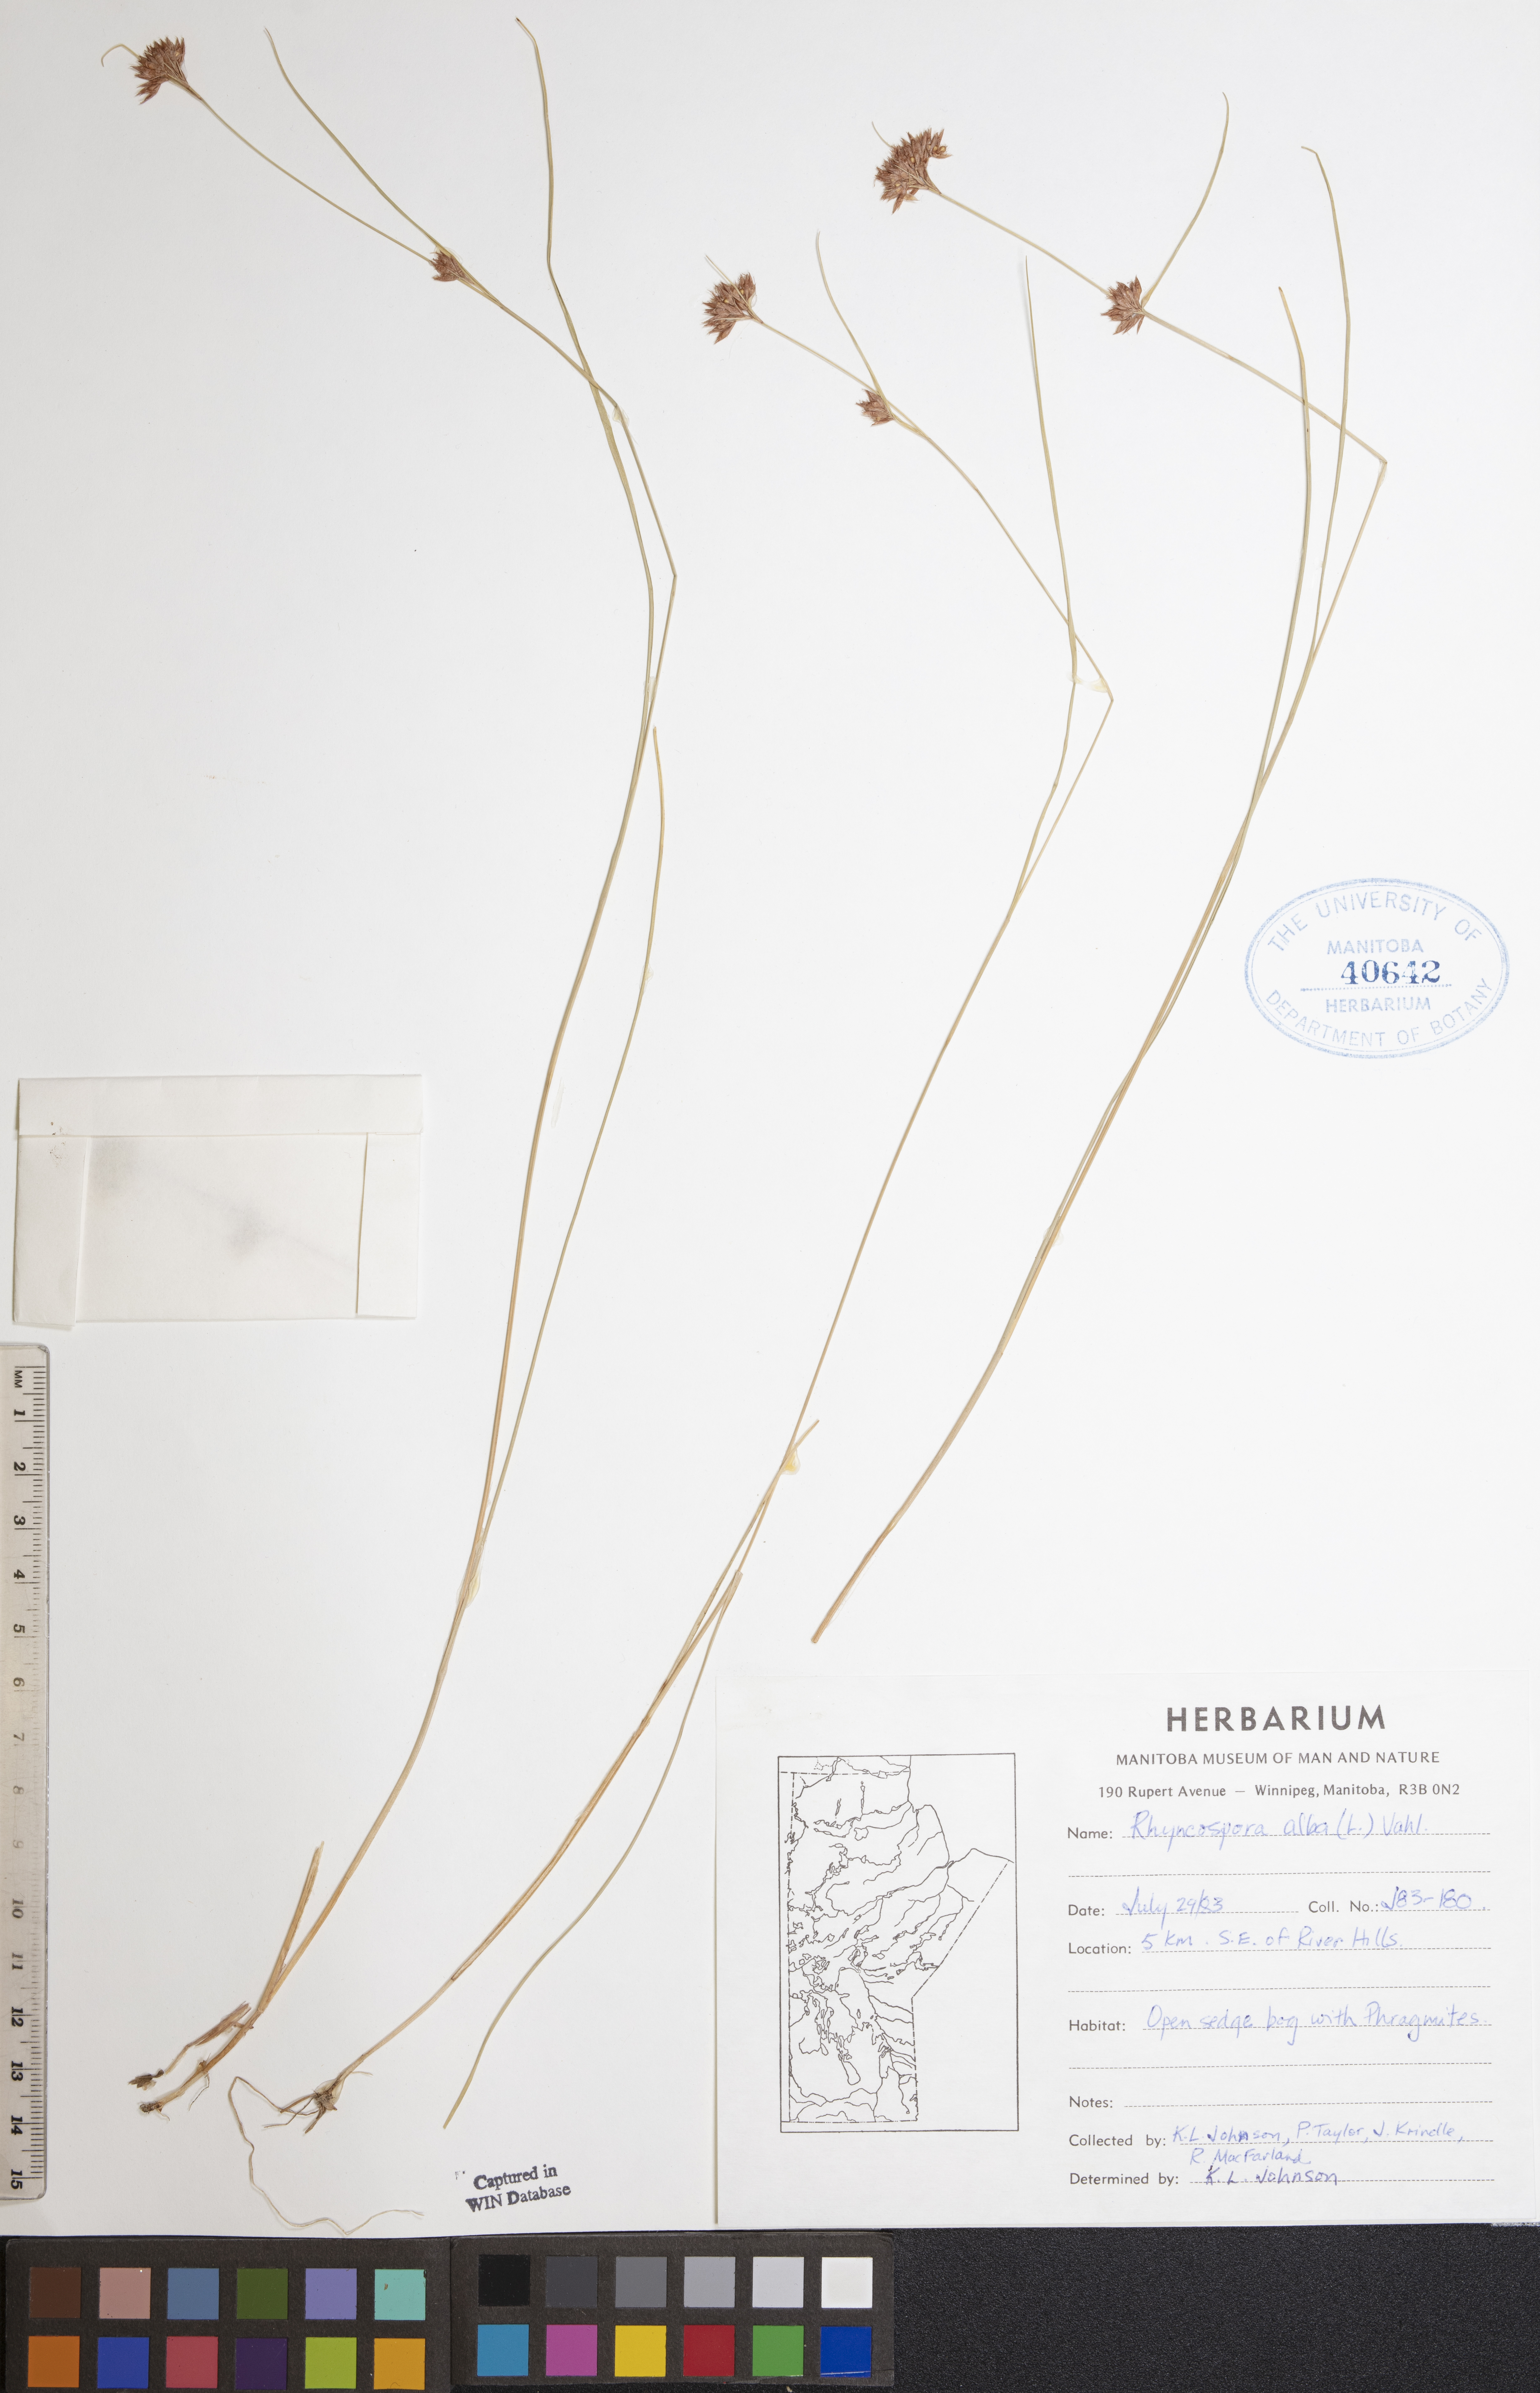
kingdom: Plantae
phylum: Tracheophyta
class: Liliopsida
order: Poales
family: Cyperaceae
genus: Rhynchospora
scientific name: Rhynchospora alba
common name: White beak-sedge
